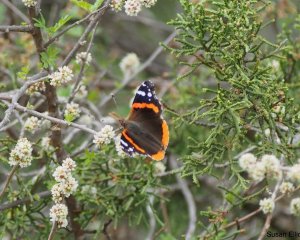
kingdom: Animalia
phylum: Arthropoda
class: Insecta
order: Lepidoptera
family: Nymphalidae
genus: Vanessa
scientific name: Vanessa atalanta
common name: Red Admiral
